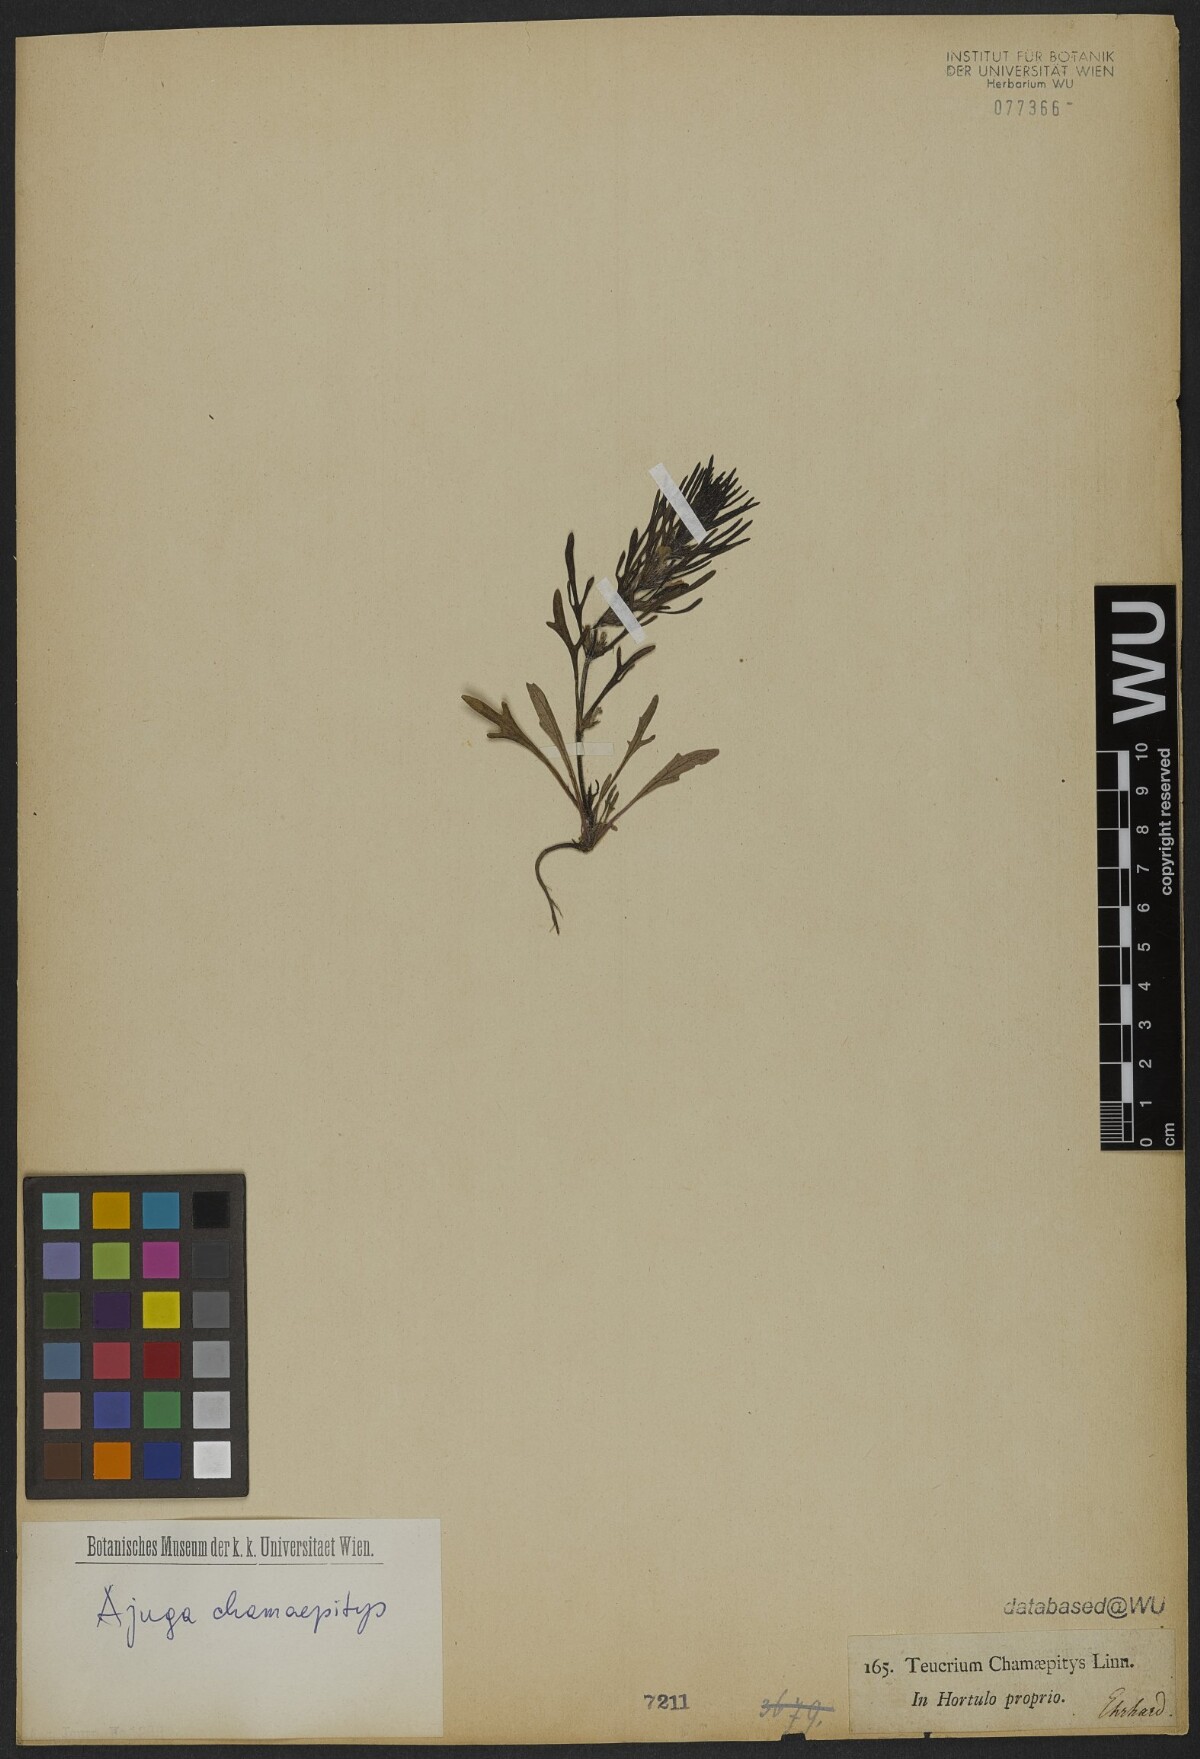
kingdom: Plantae
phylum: Tracheophyta
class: Magnoliopsida
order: Lamiales
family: Lamiaceae
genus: Ajuga
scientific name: Ajuga chamaepitys
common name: Ground-pine
